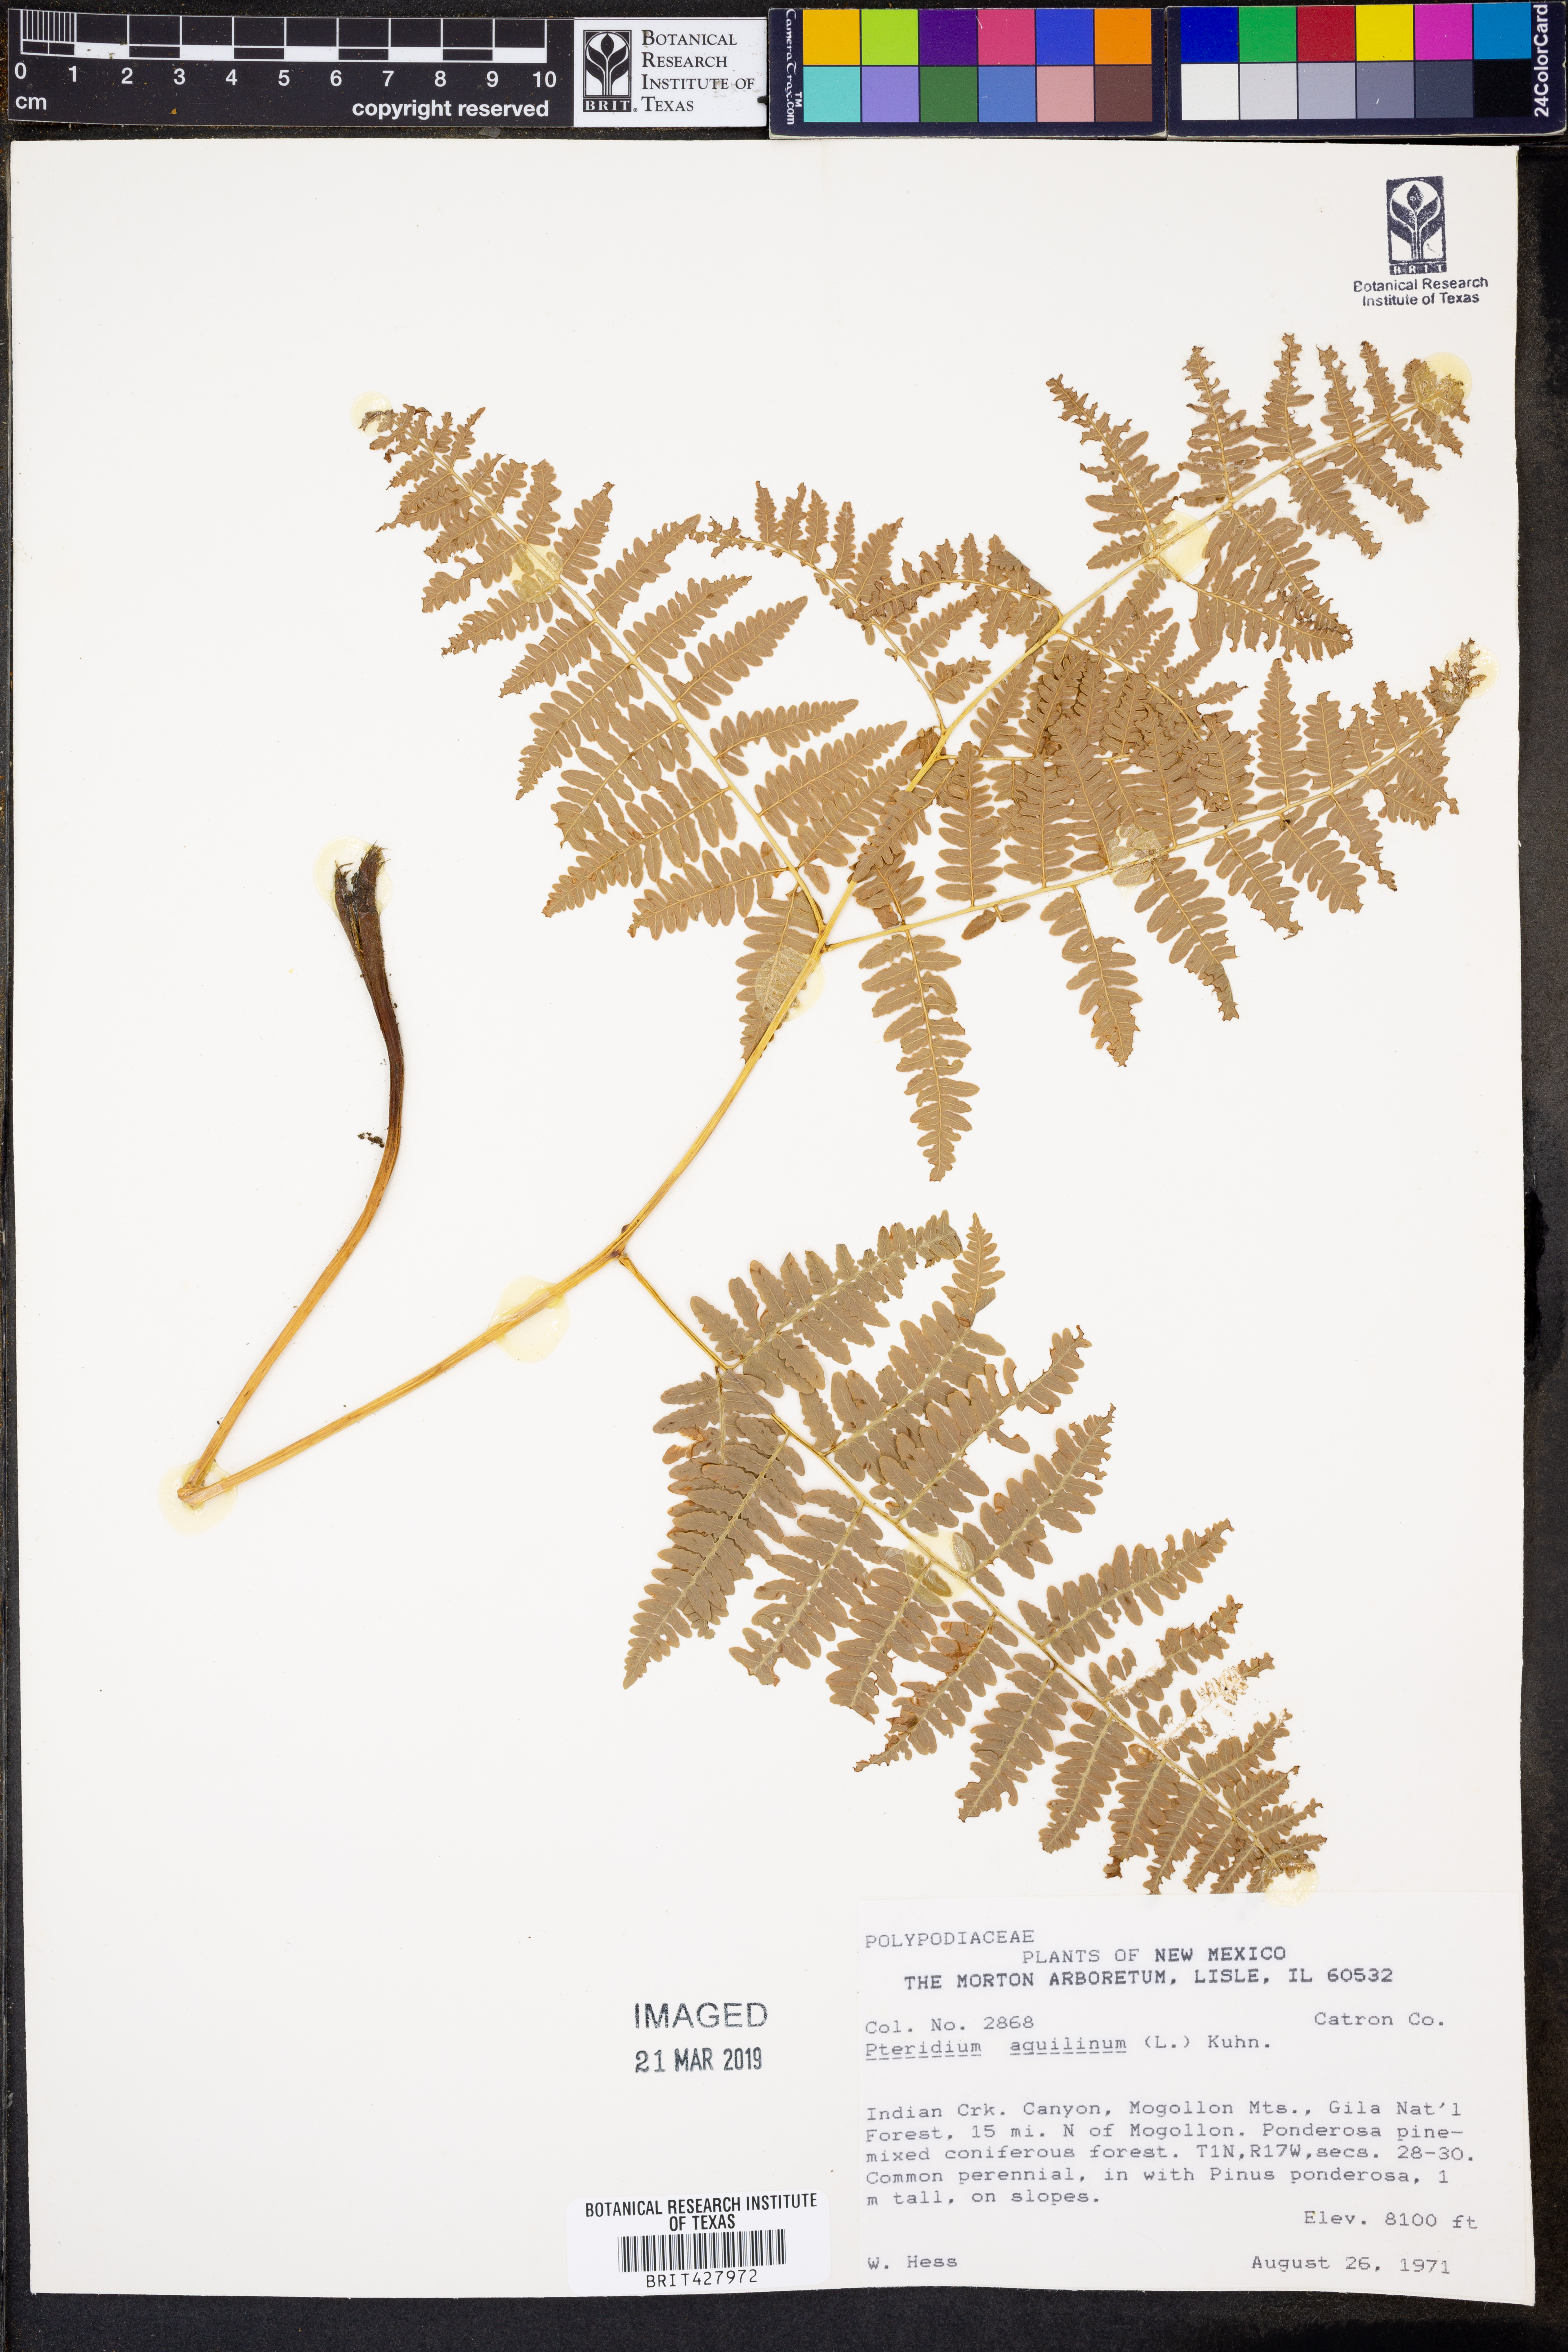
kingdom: Plantae
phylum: Tracheophyta
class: Polypodiopsida
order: Polypodiales
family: Dennstaedtiaceae
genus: Pteridium
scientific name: Pteridium aquilinum
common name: Bracken
